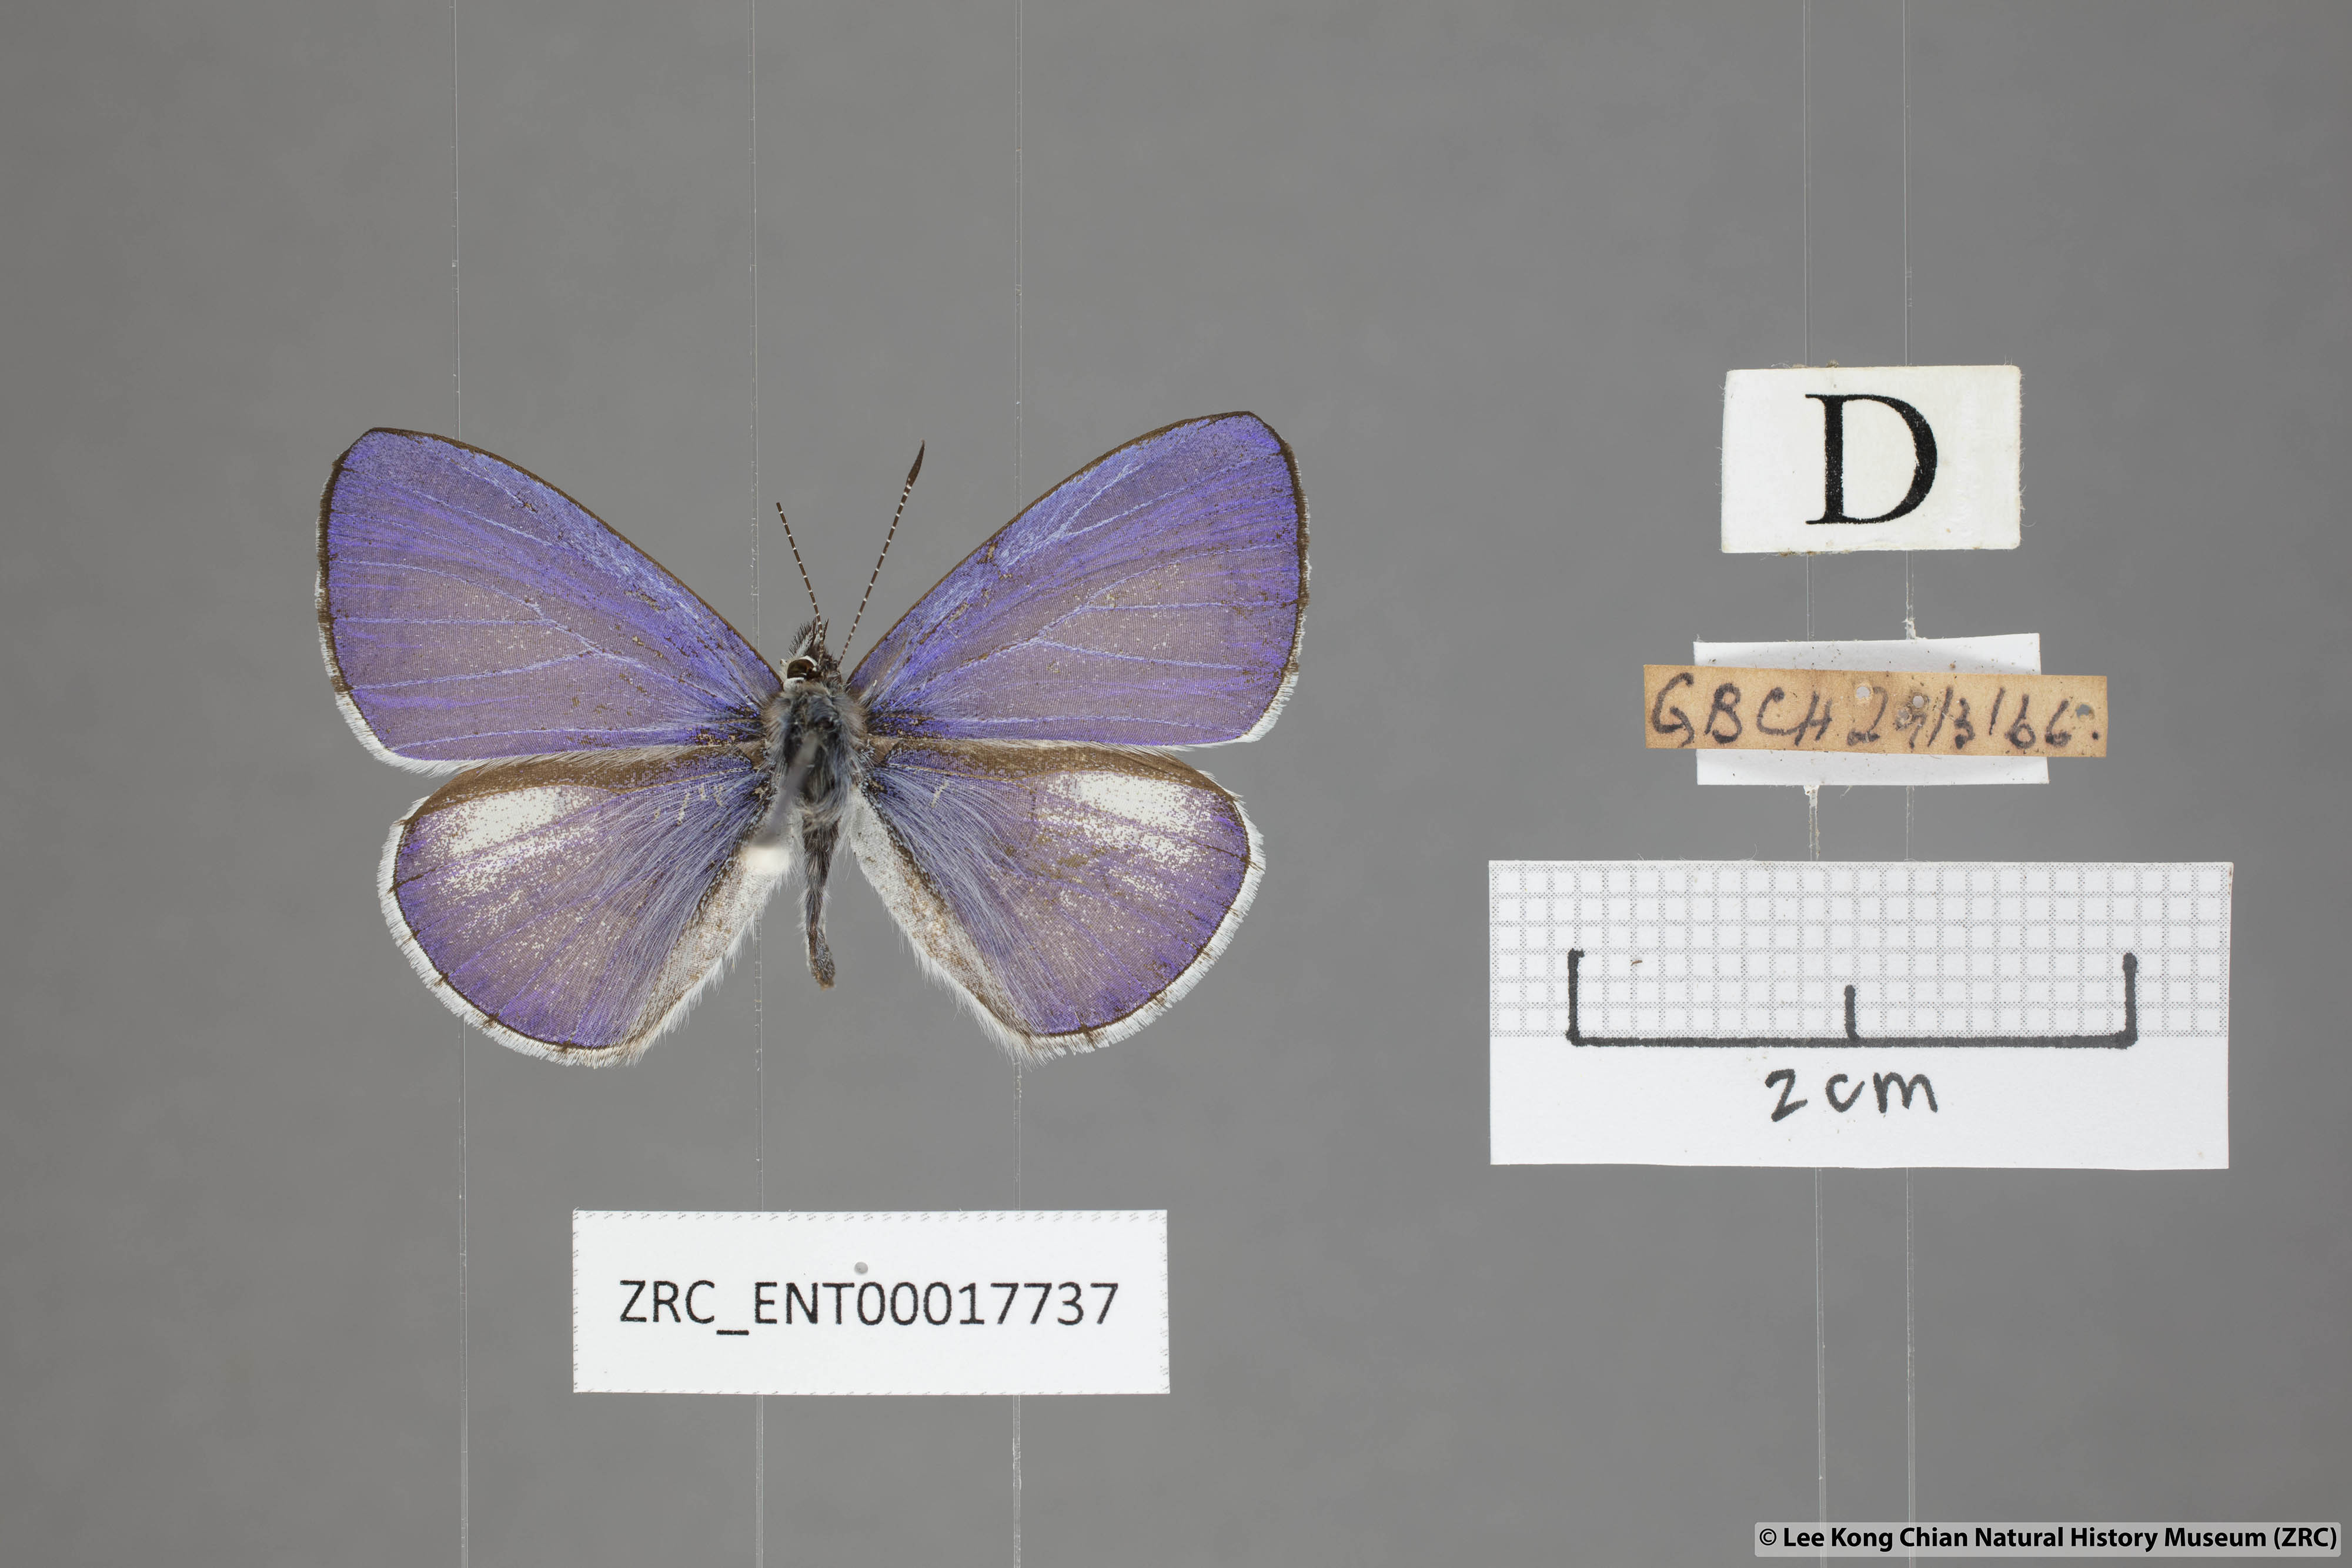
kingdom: Animalia
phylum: Arthropoda
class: Insecta
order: Lepidoptera
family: Lycaenidae
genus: Udara
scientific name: Udara
